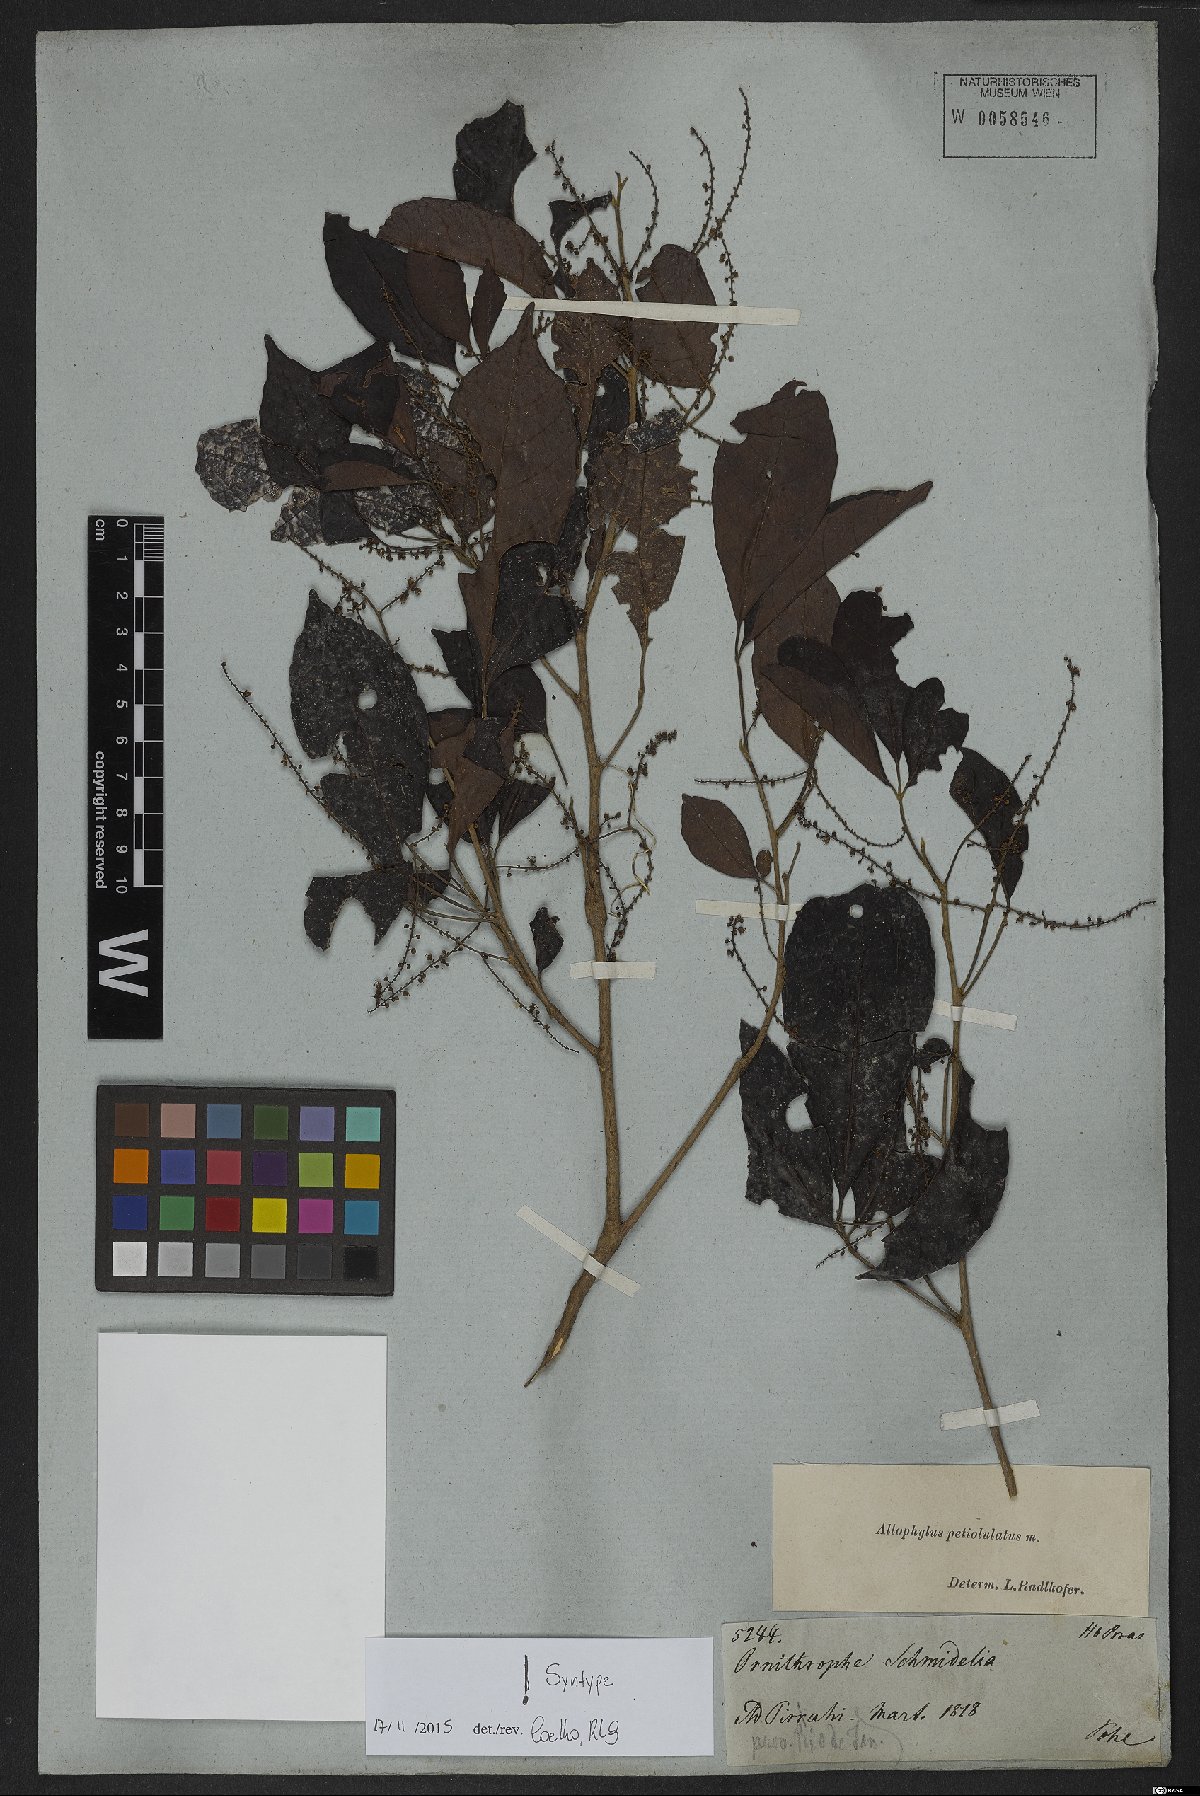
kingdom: Plantae
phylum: Tracheophyta
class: Magnoliopsida
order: Sapindales
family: Sapindaceae
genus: Allophylus
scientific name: Allophylus petiolulatus
